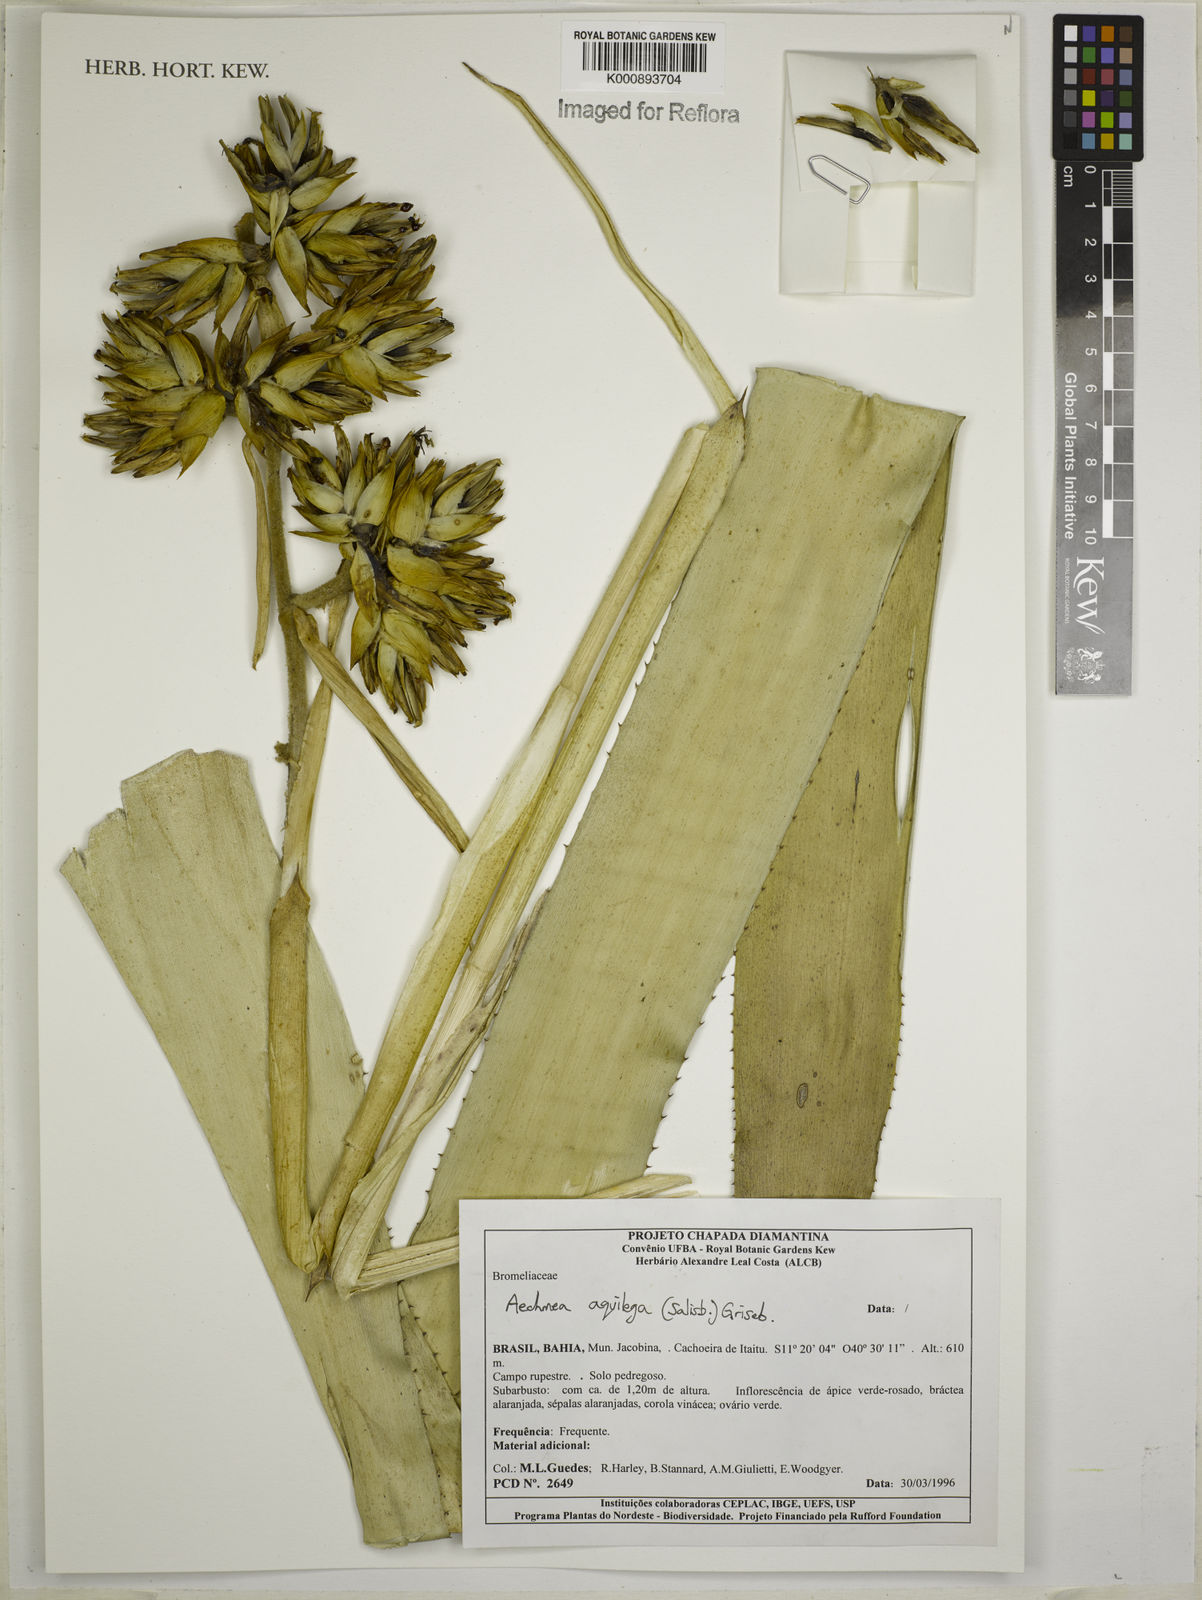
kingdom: Plantae
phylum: Tracheophyta
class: Liliopsida
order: Poales
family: Bromeliaceae
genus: Aechmea
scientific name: Aechmea aquilega
